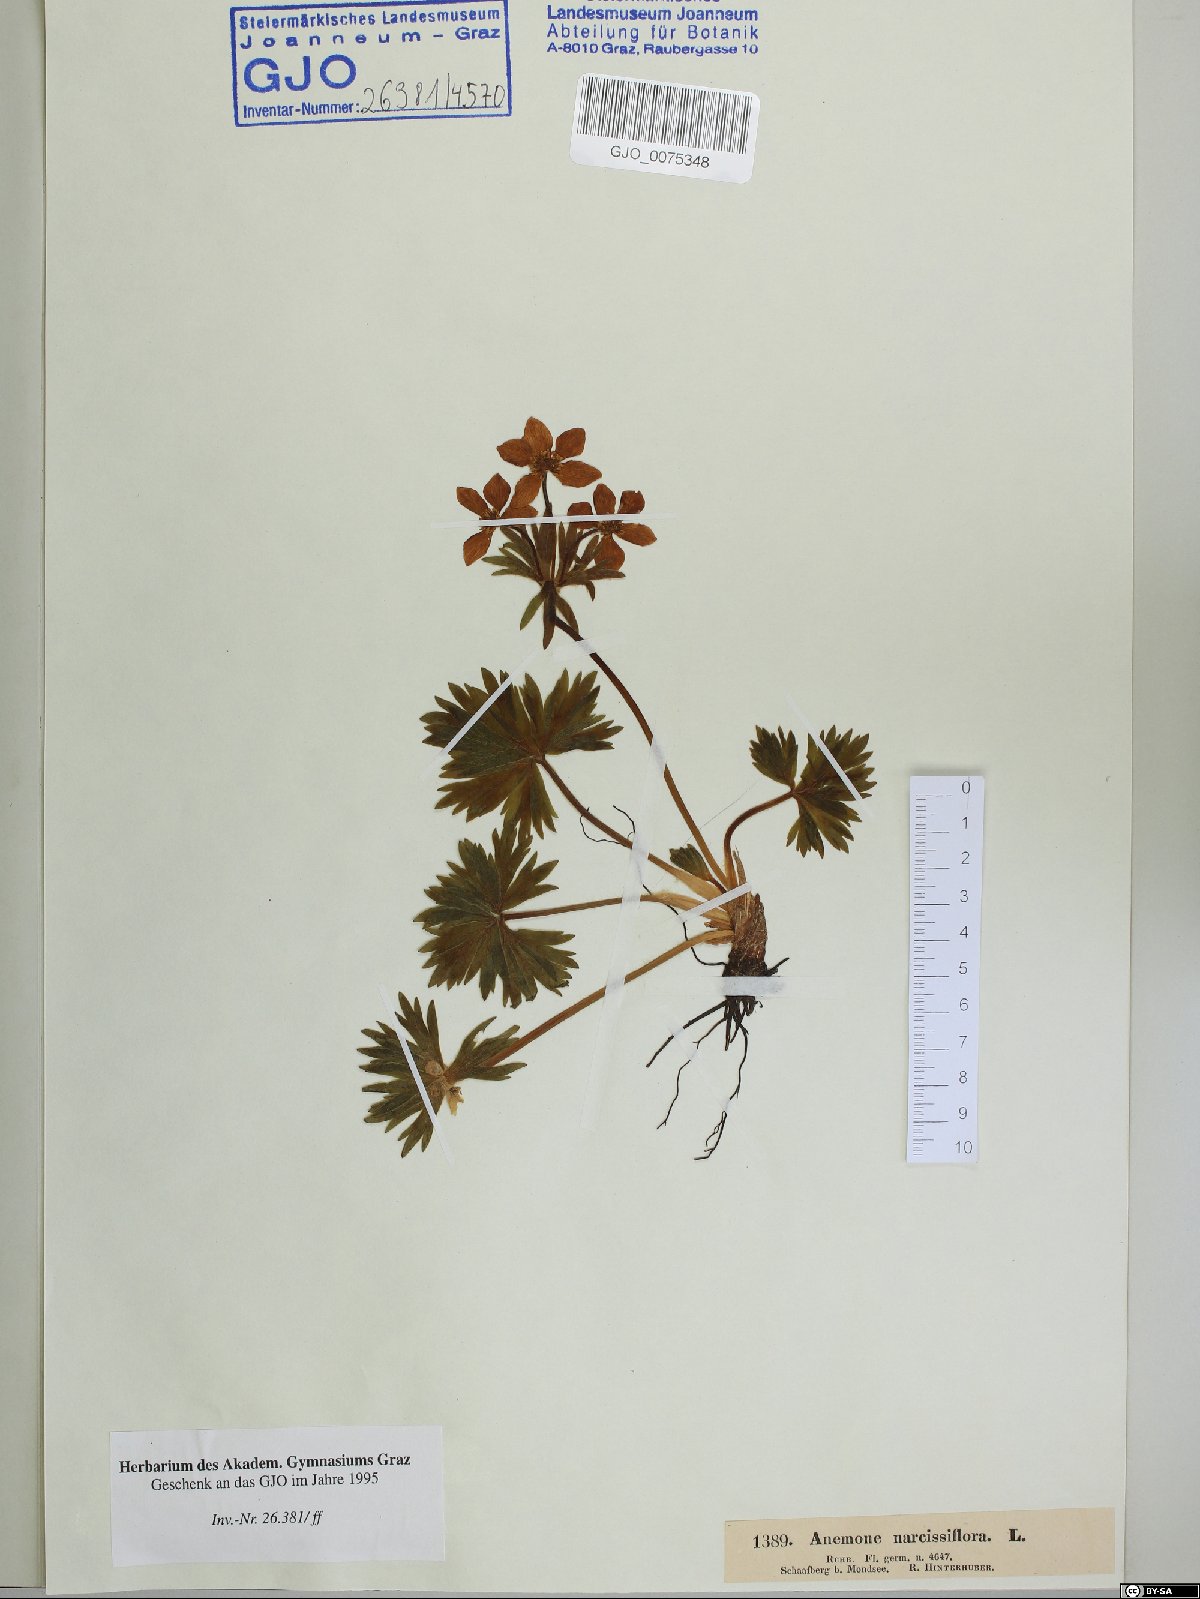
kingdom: Plantae
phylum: Tracheophyta
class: Magnoliopsida
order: Ranunculales
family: Ranunculaceae
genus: Anemonastrum
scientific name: Anemonastrum narcissiflorum
